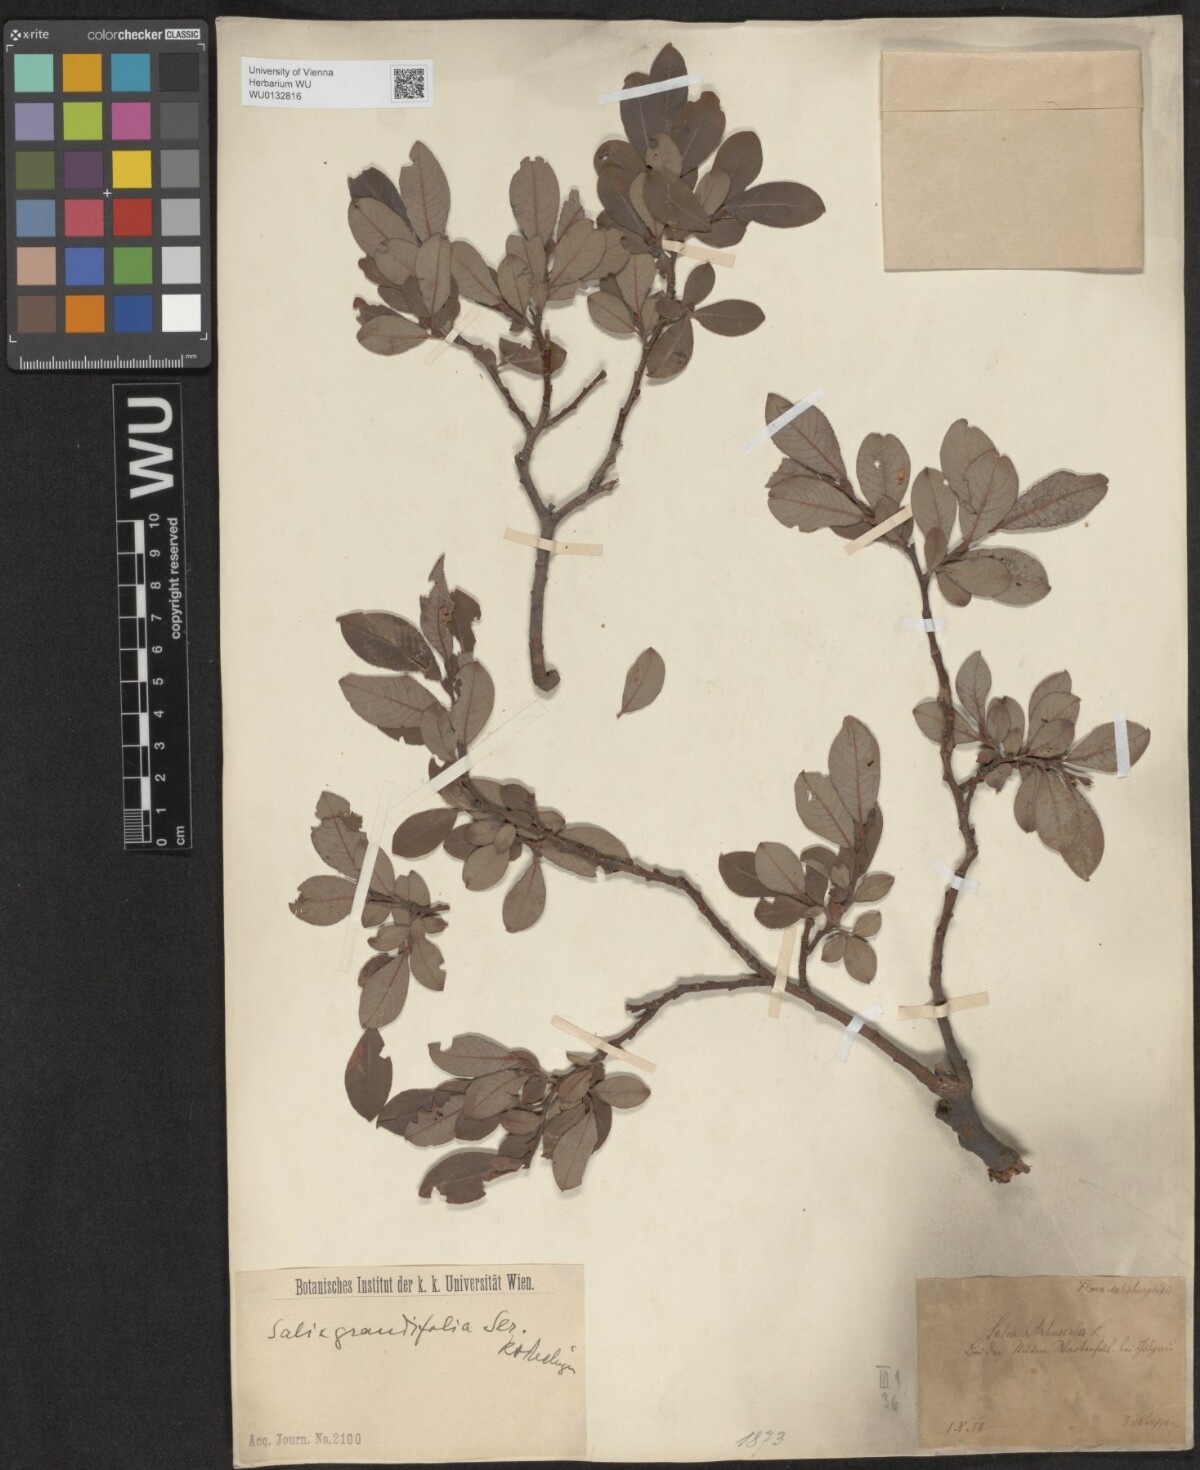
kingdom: Plantae
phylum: Tracheophyta
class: Magnoliopsida
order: Malpighiales
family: Salicaceae
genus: Salix
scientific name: Salix appendiculata
